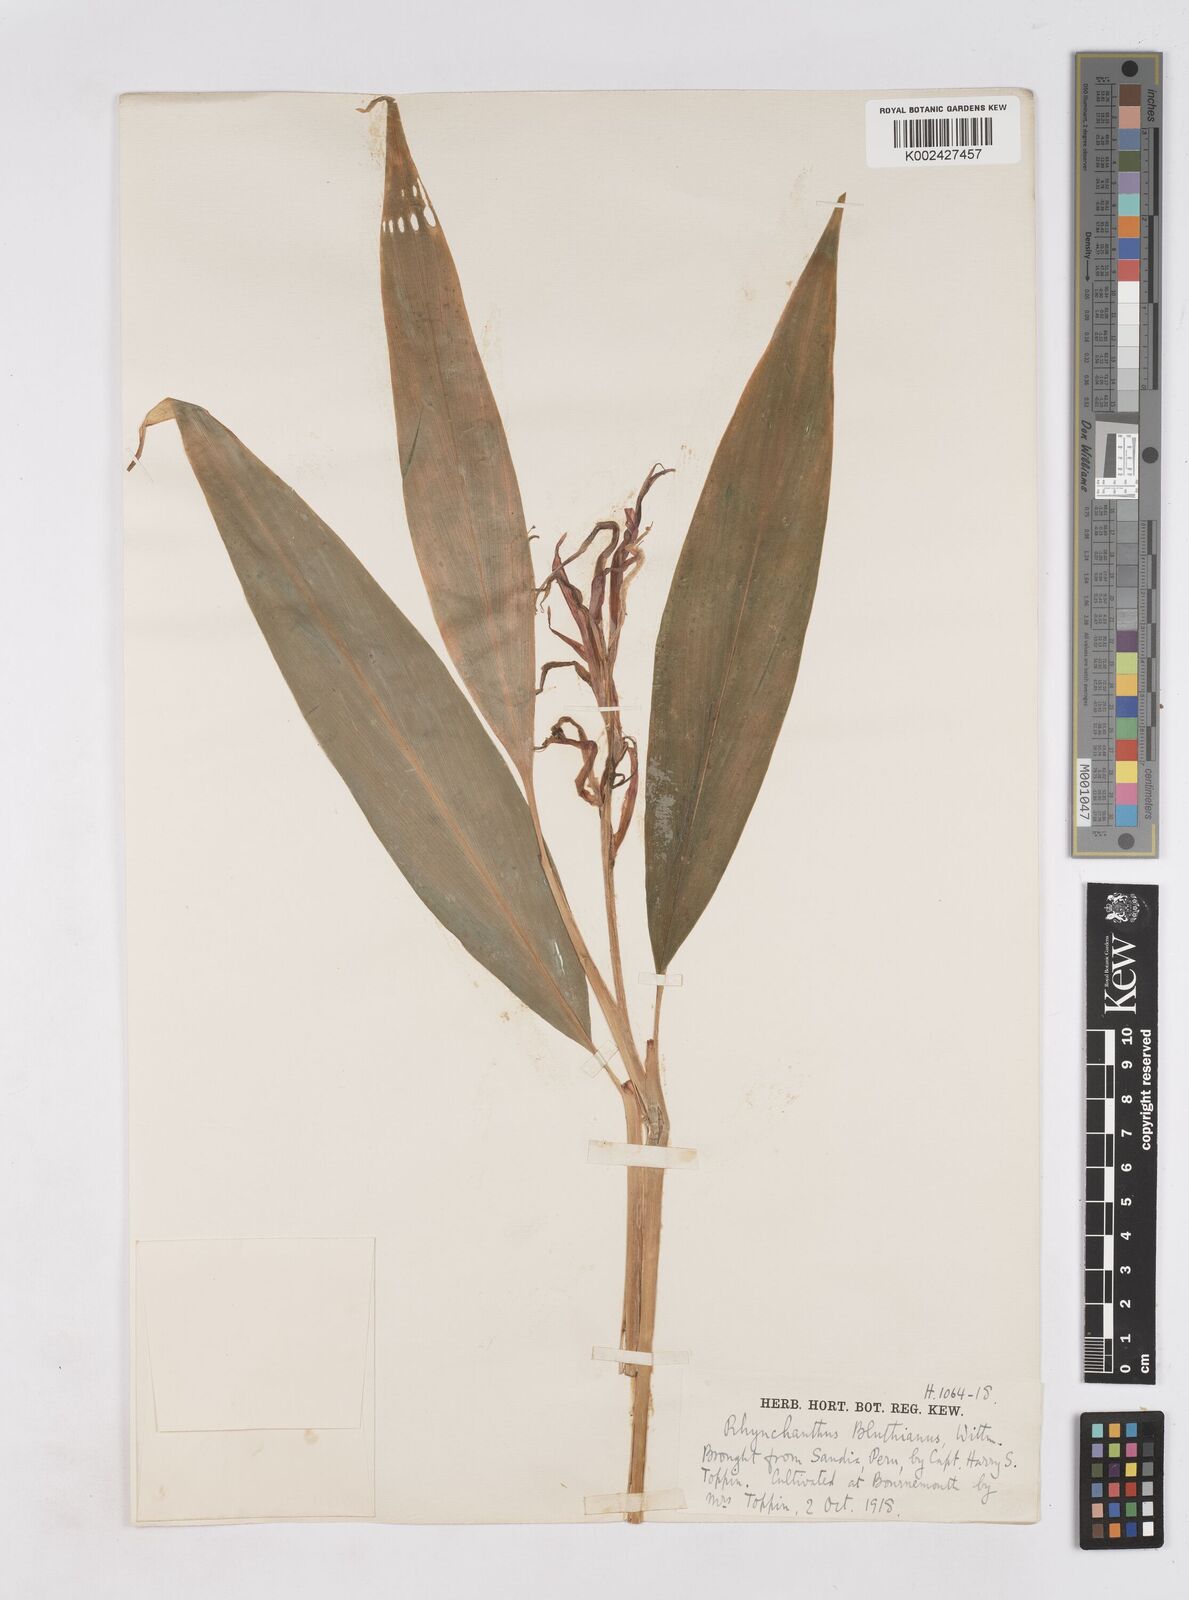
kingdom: Plantae
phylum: Tracheophyta
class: Liliopsida
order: Zingiberales
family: Zingiberaceae
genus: Rhynchanthus
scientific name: Rhynchanthus bluthianus
